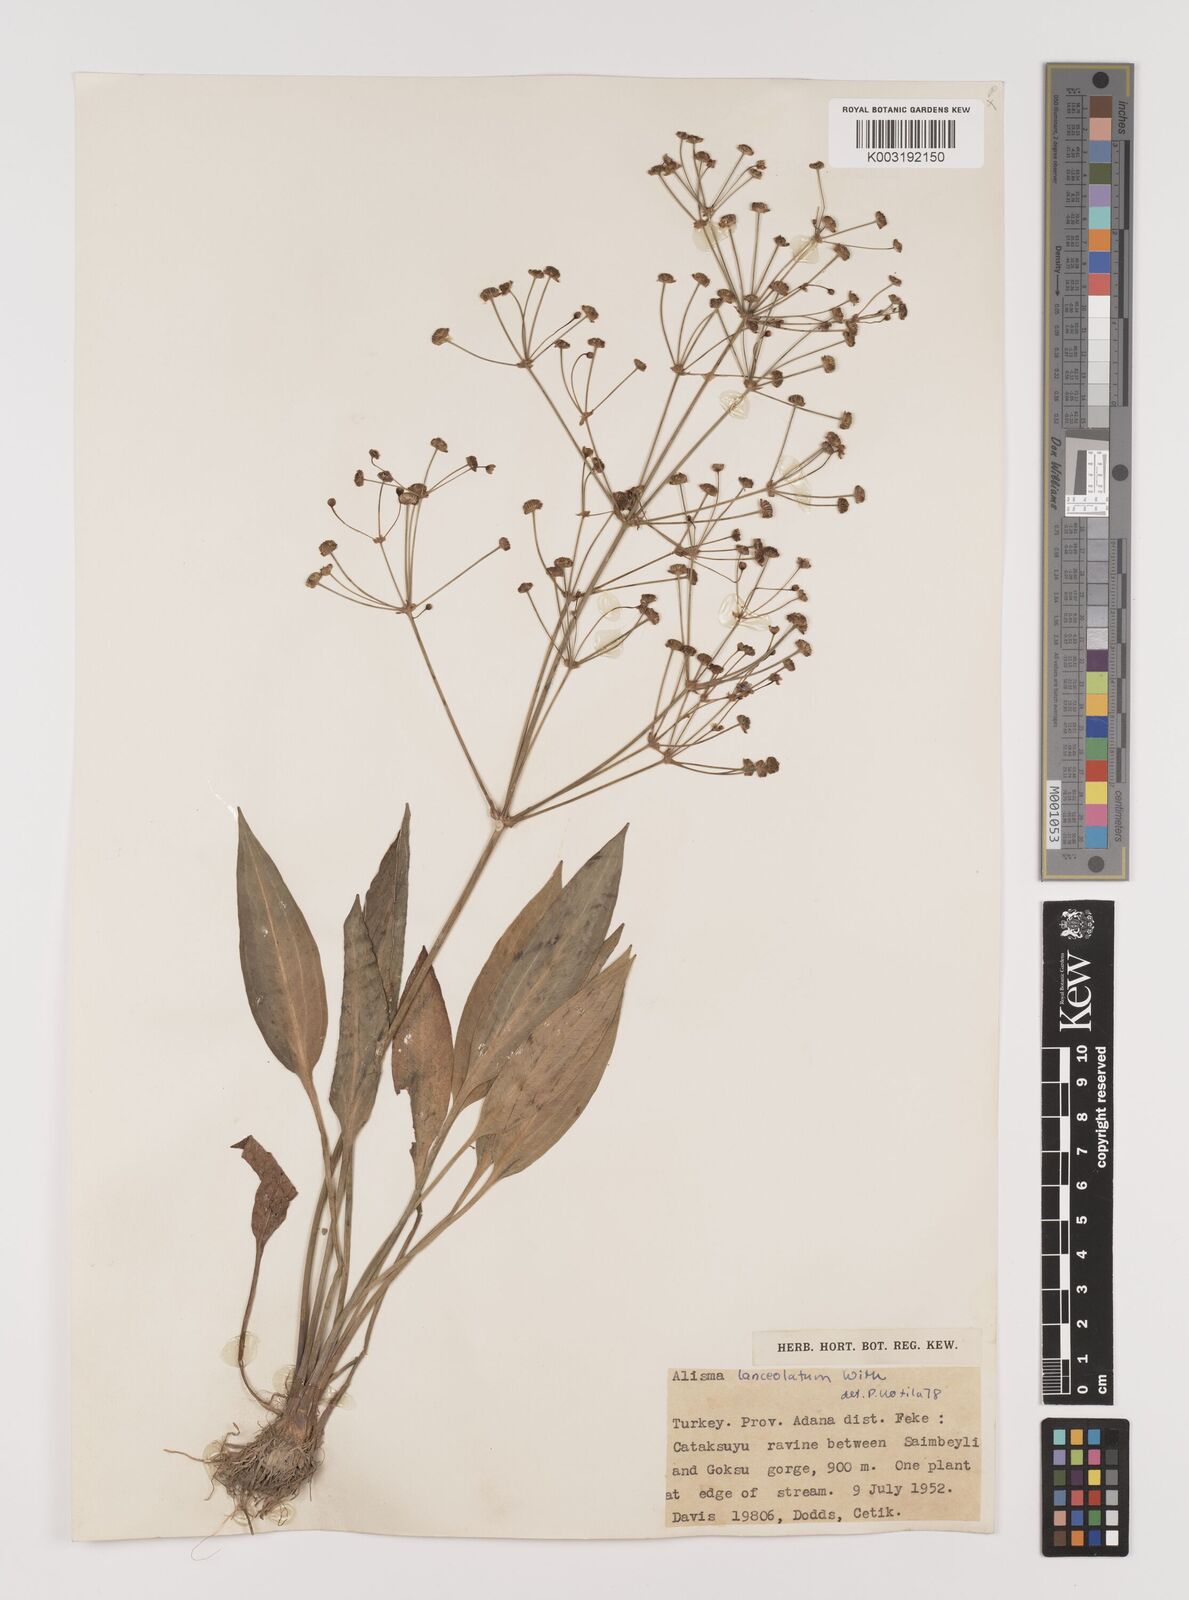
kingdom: Plantae
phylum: Tracheophyta
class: Liliopsida
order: Alismatales
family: Alismataceae
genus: Alisma
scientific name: Alisma lanceolatum
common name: Narrow-leaved water-plantain
